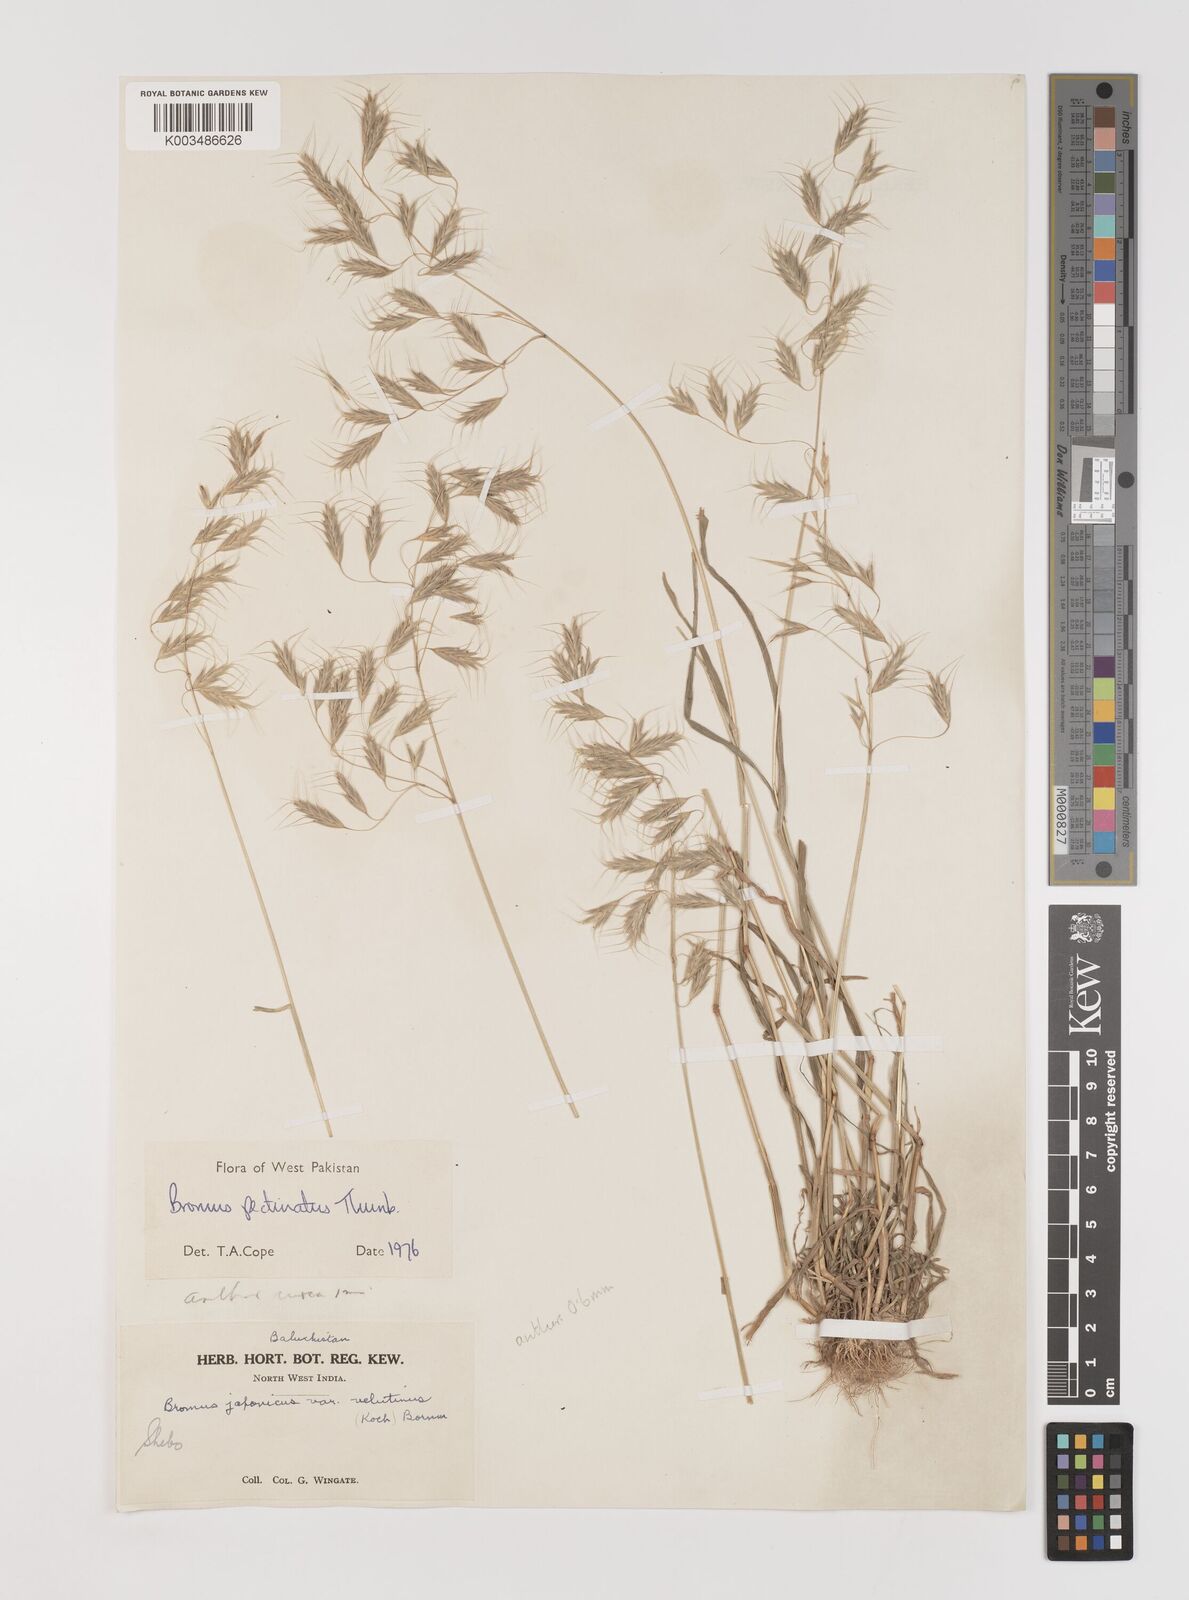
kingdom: Plantae
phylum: Tracheophyta
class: Liliopsida
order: Poales
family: Poaceae
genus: Bromus
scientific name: Bromus pectinatus
